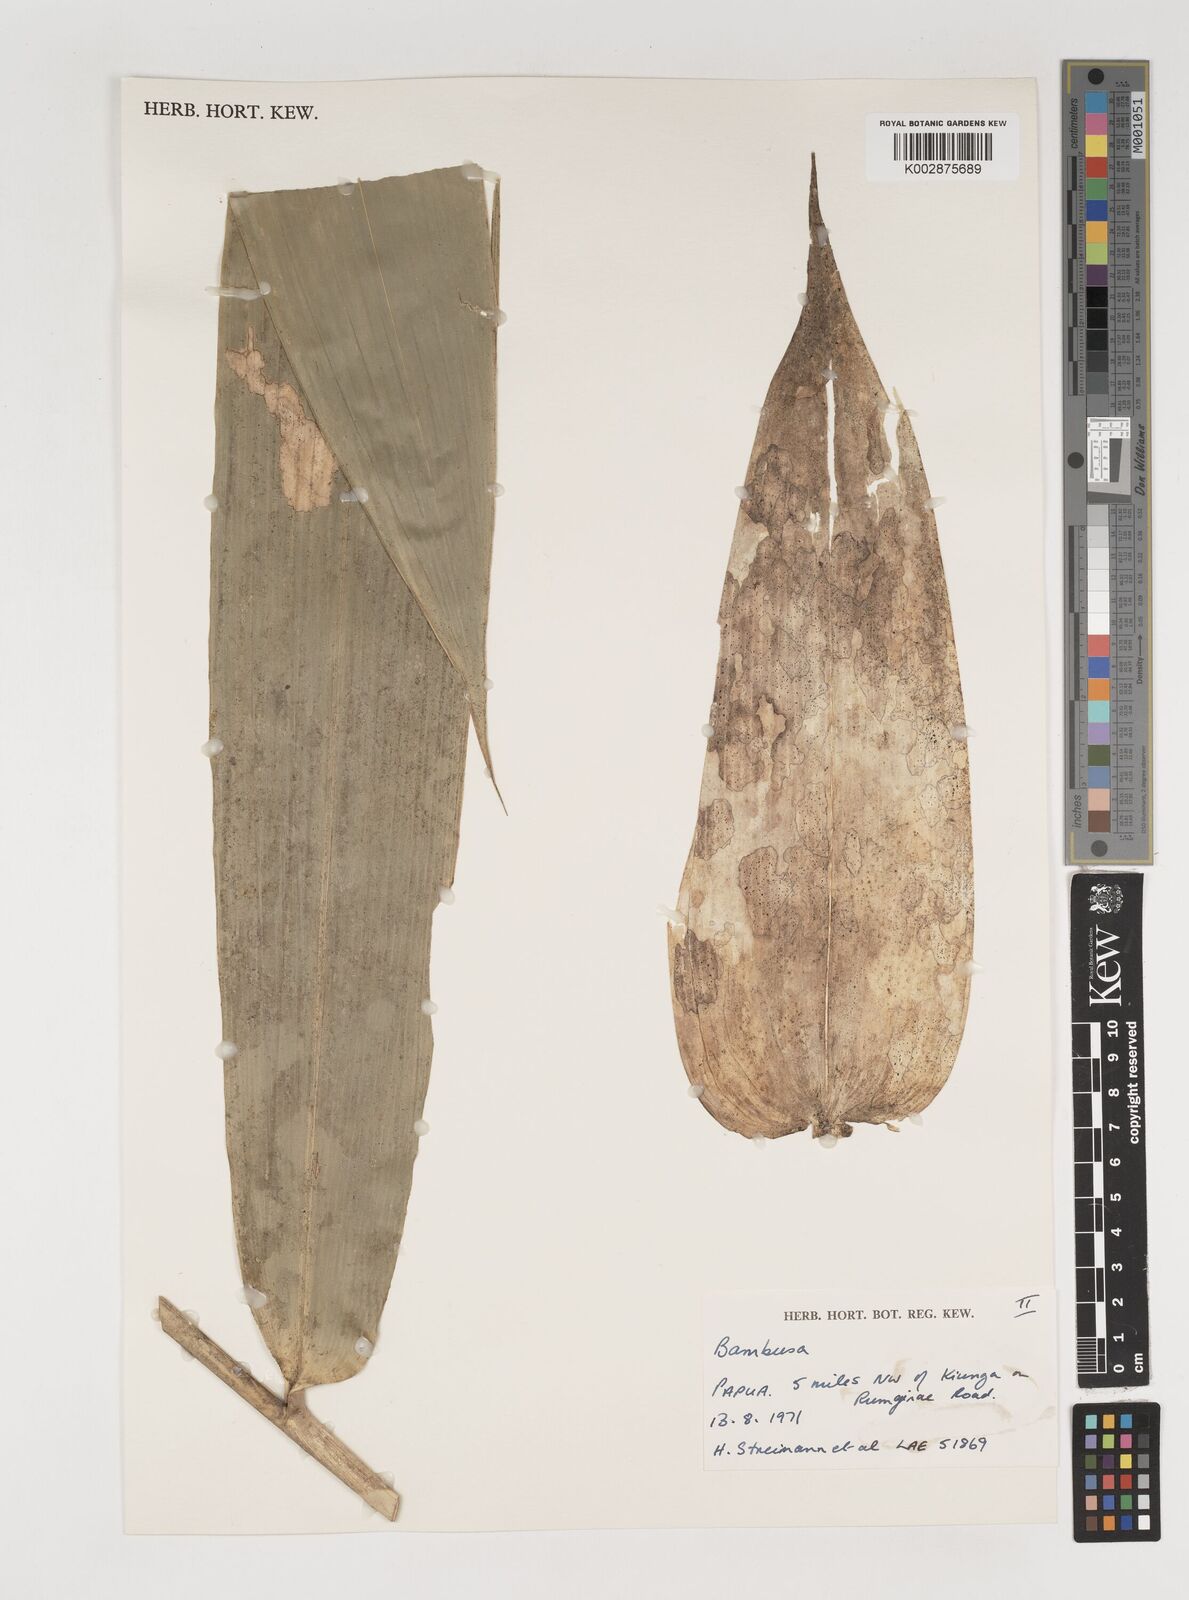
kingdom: Plantae
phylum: Tracheophyta
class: Liliopsida
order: Poales
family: Poaceae
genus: Neololeba
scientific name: Neololeba atra
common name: Cape bamboo
